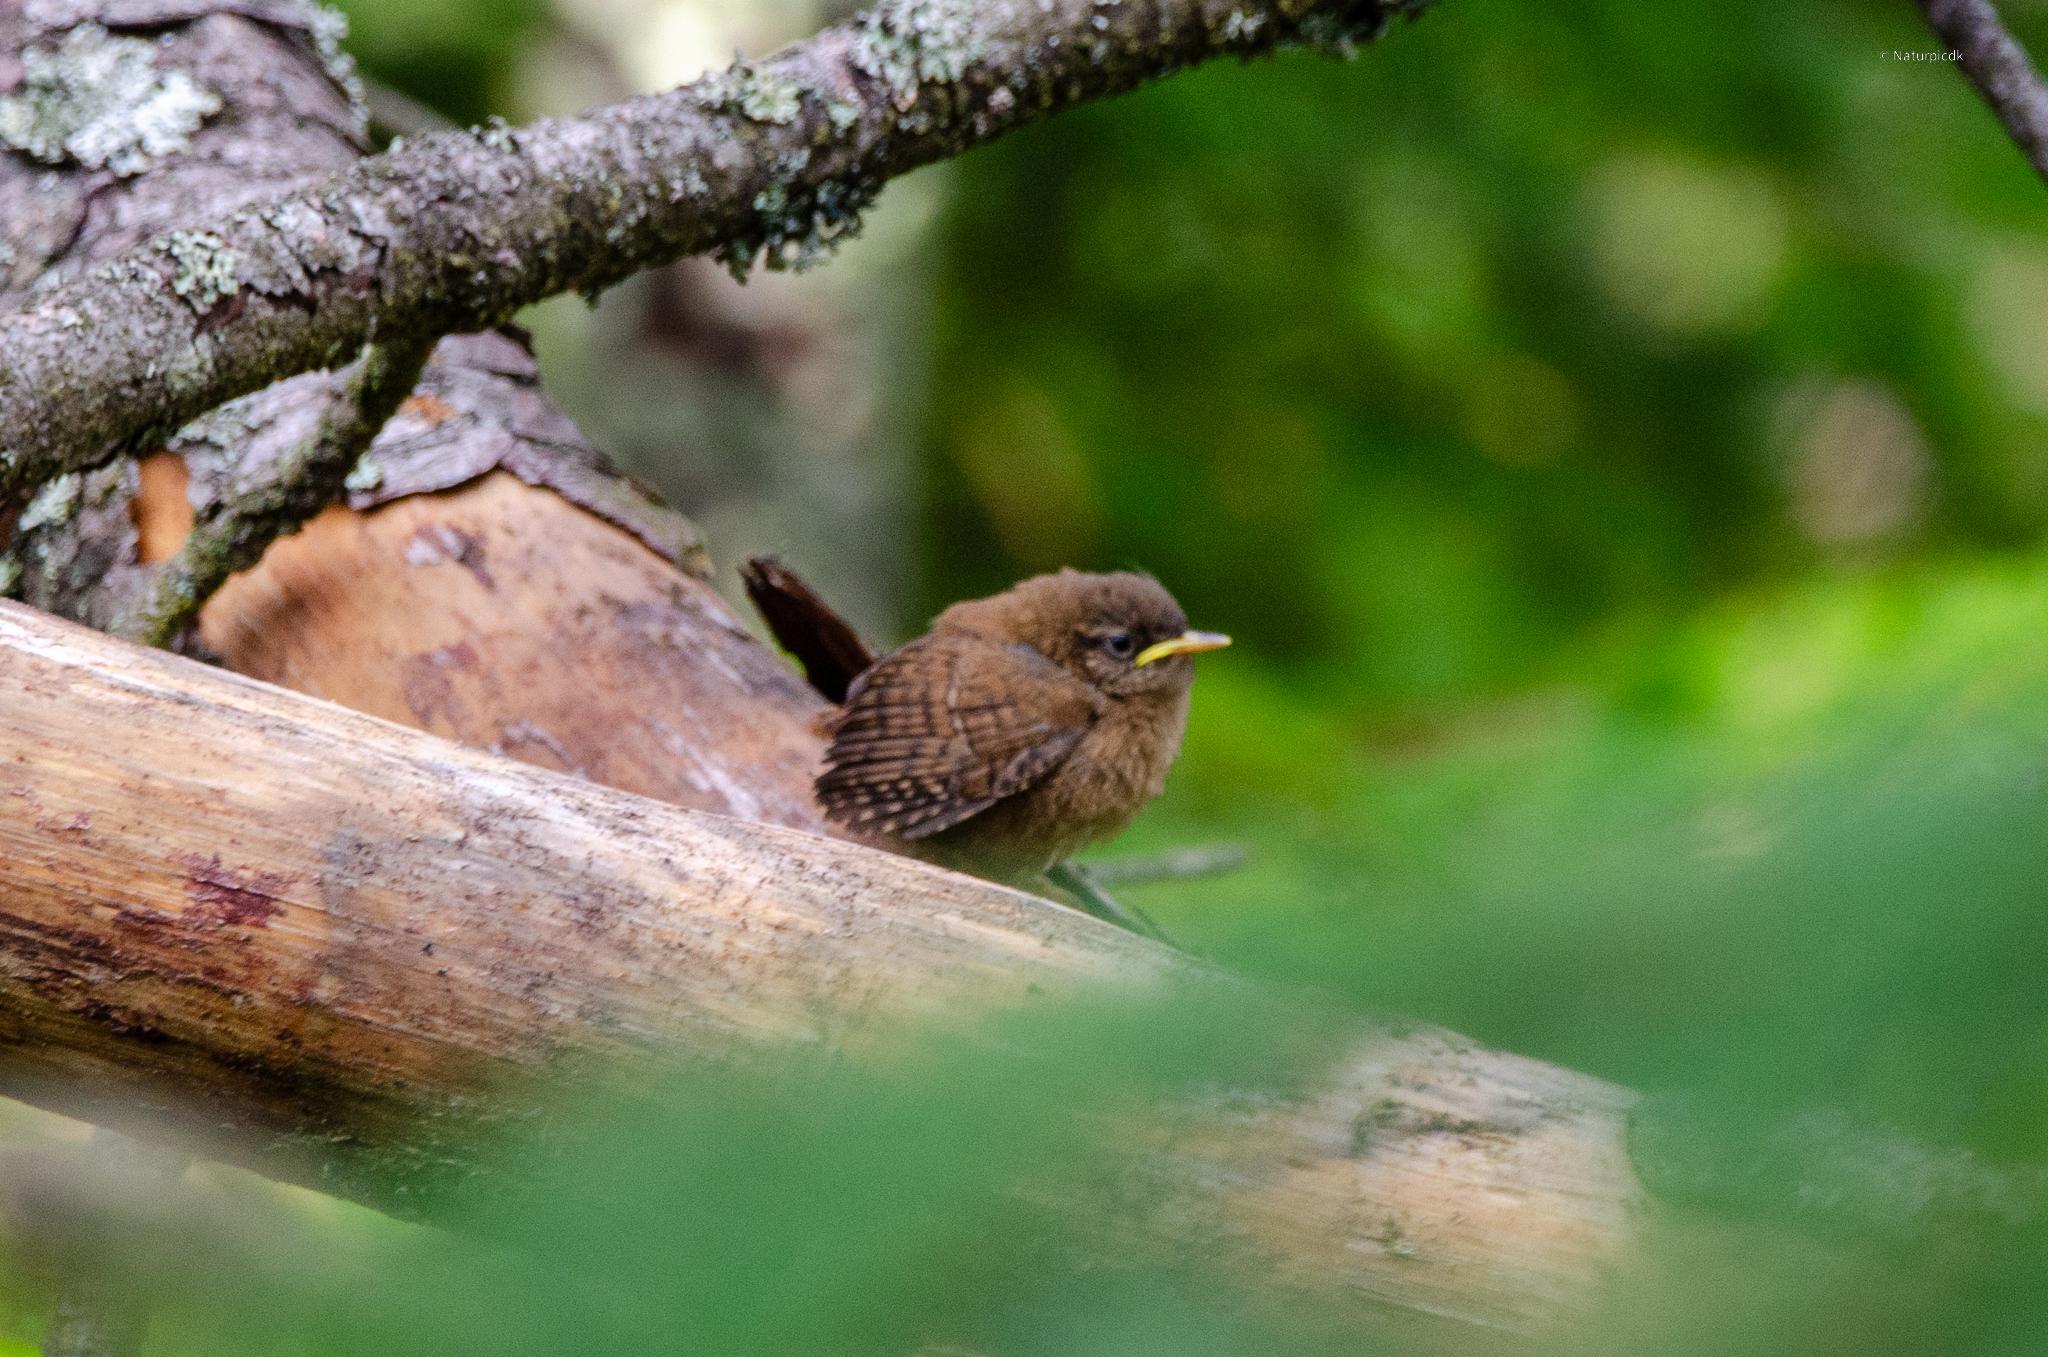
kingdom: Animalia
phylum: Chordata
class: Aves
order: Passeriformes
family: Troglodytidae
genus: Troglodytes
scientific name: Troglodytes troglodytes
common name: Gærdesmutte
